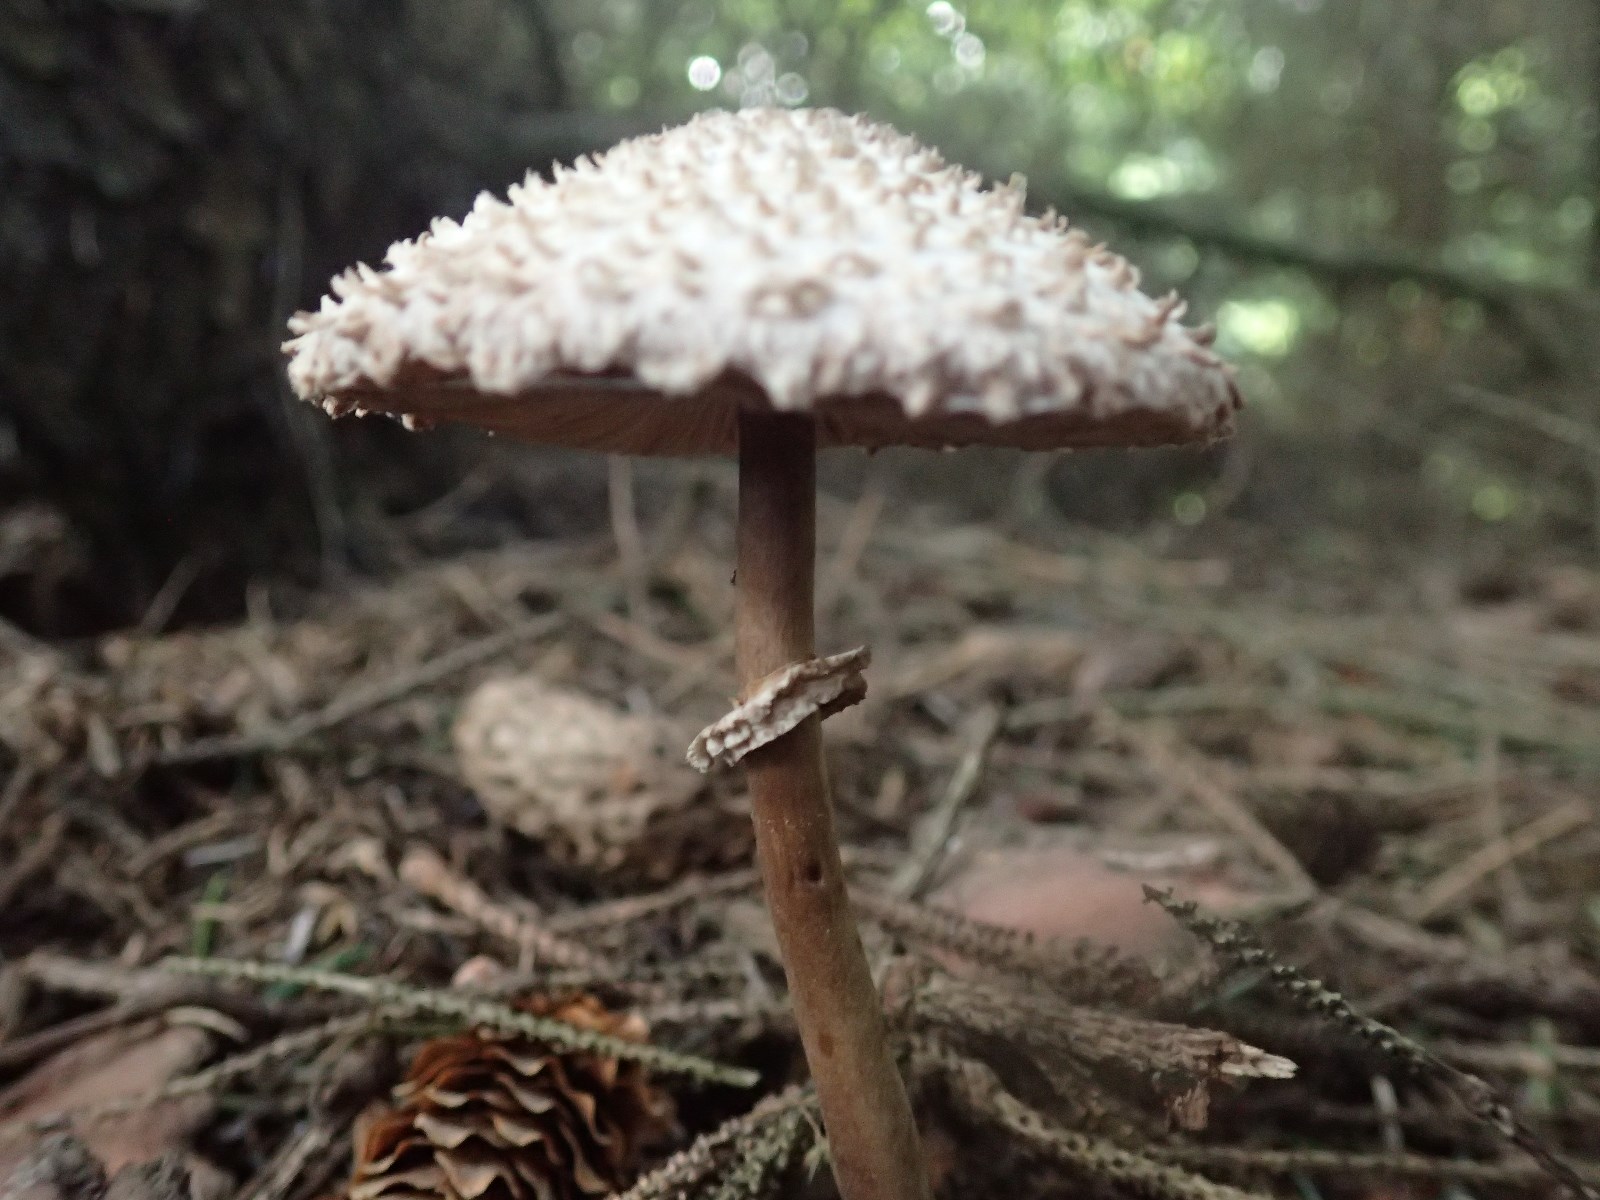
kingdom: Fungi
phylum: Basidiomycota
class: Agaricomycetes
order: Agaricales
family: Agaricaceae
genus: Leucoagaricus
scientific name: Leucoagaricus nympharum
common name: gran-silkehat
